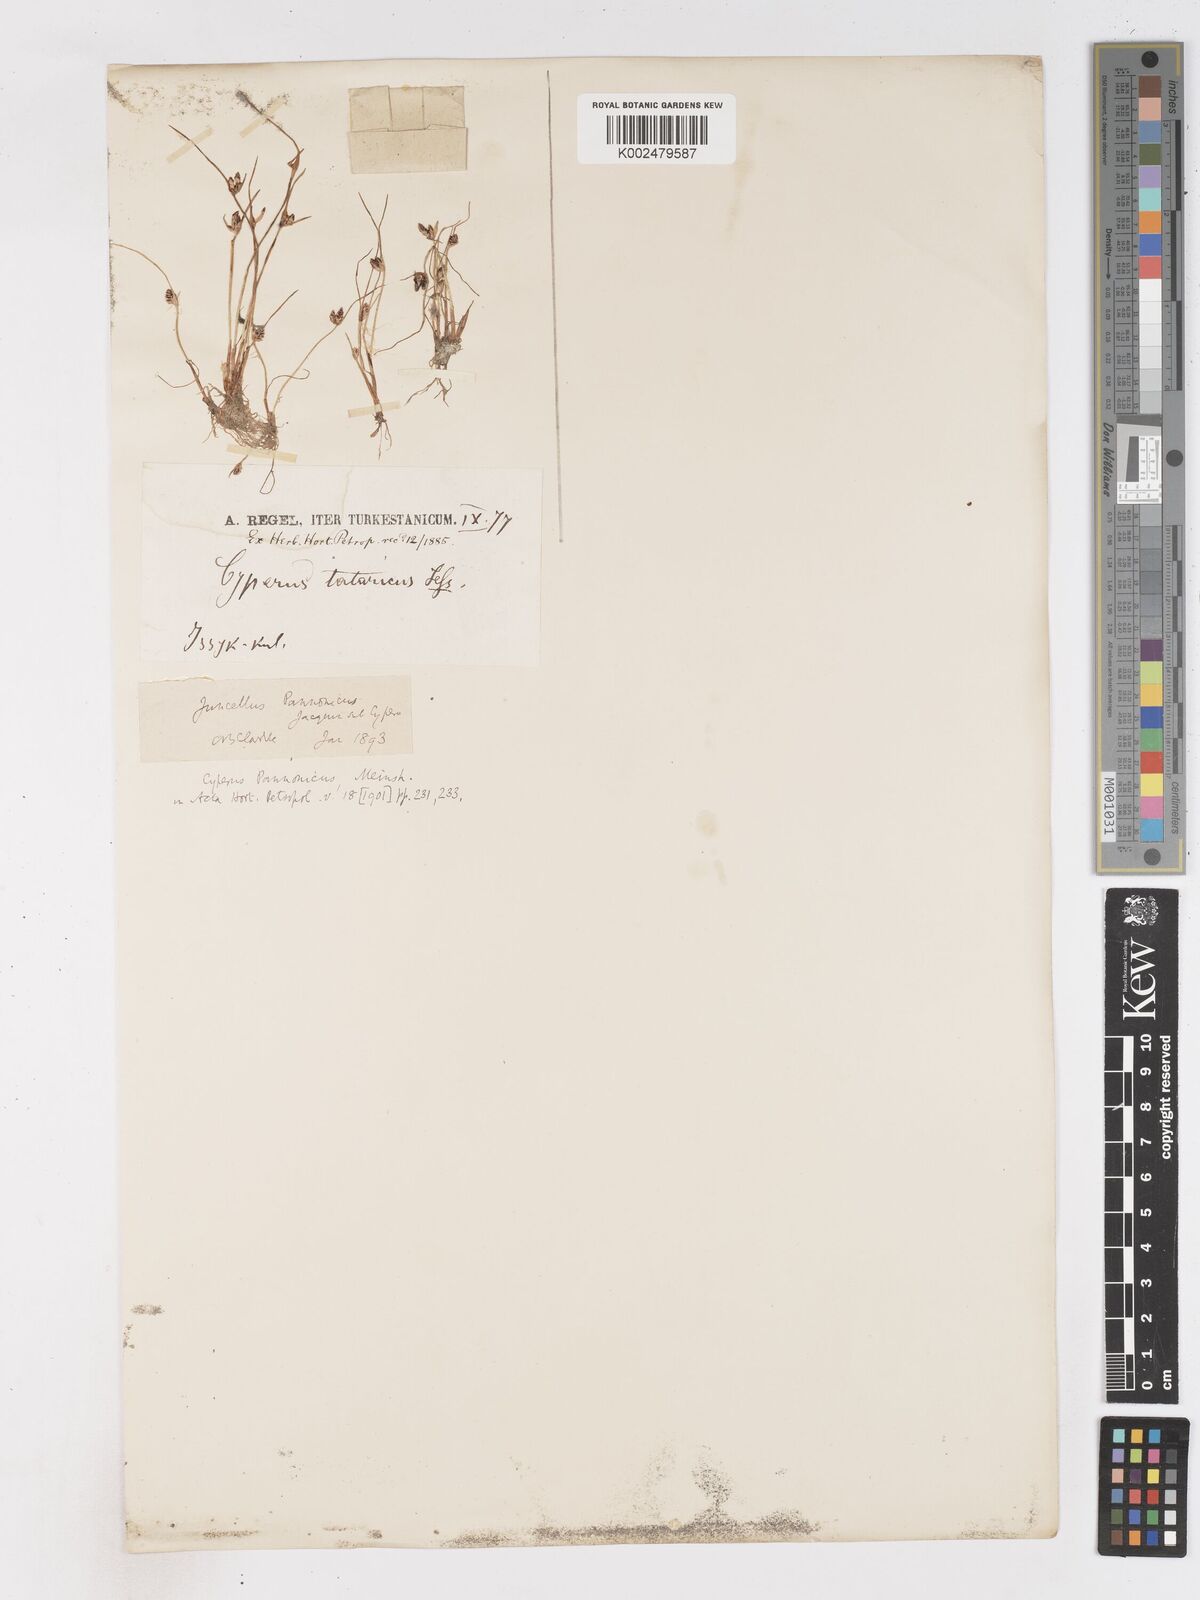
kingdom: Plantae
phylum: Tracheophyta
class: Liliopsida
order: Poales
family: Cyperaceae
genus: Cyperus
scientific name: Cyperus pannonicus
